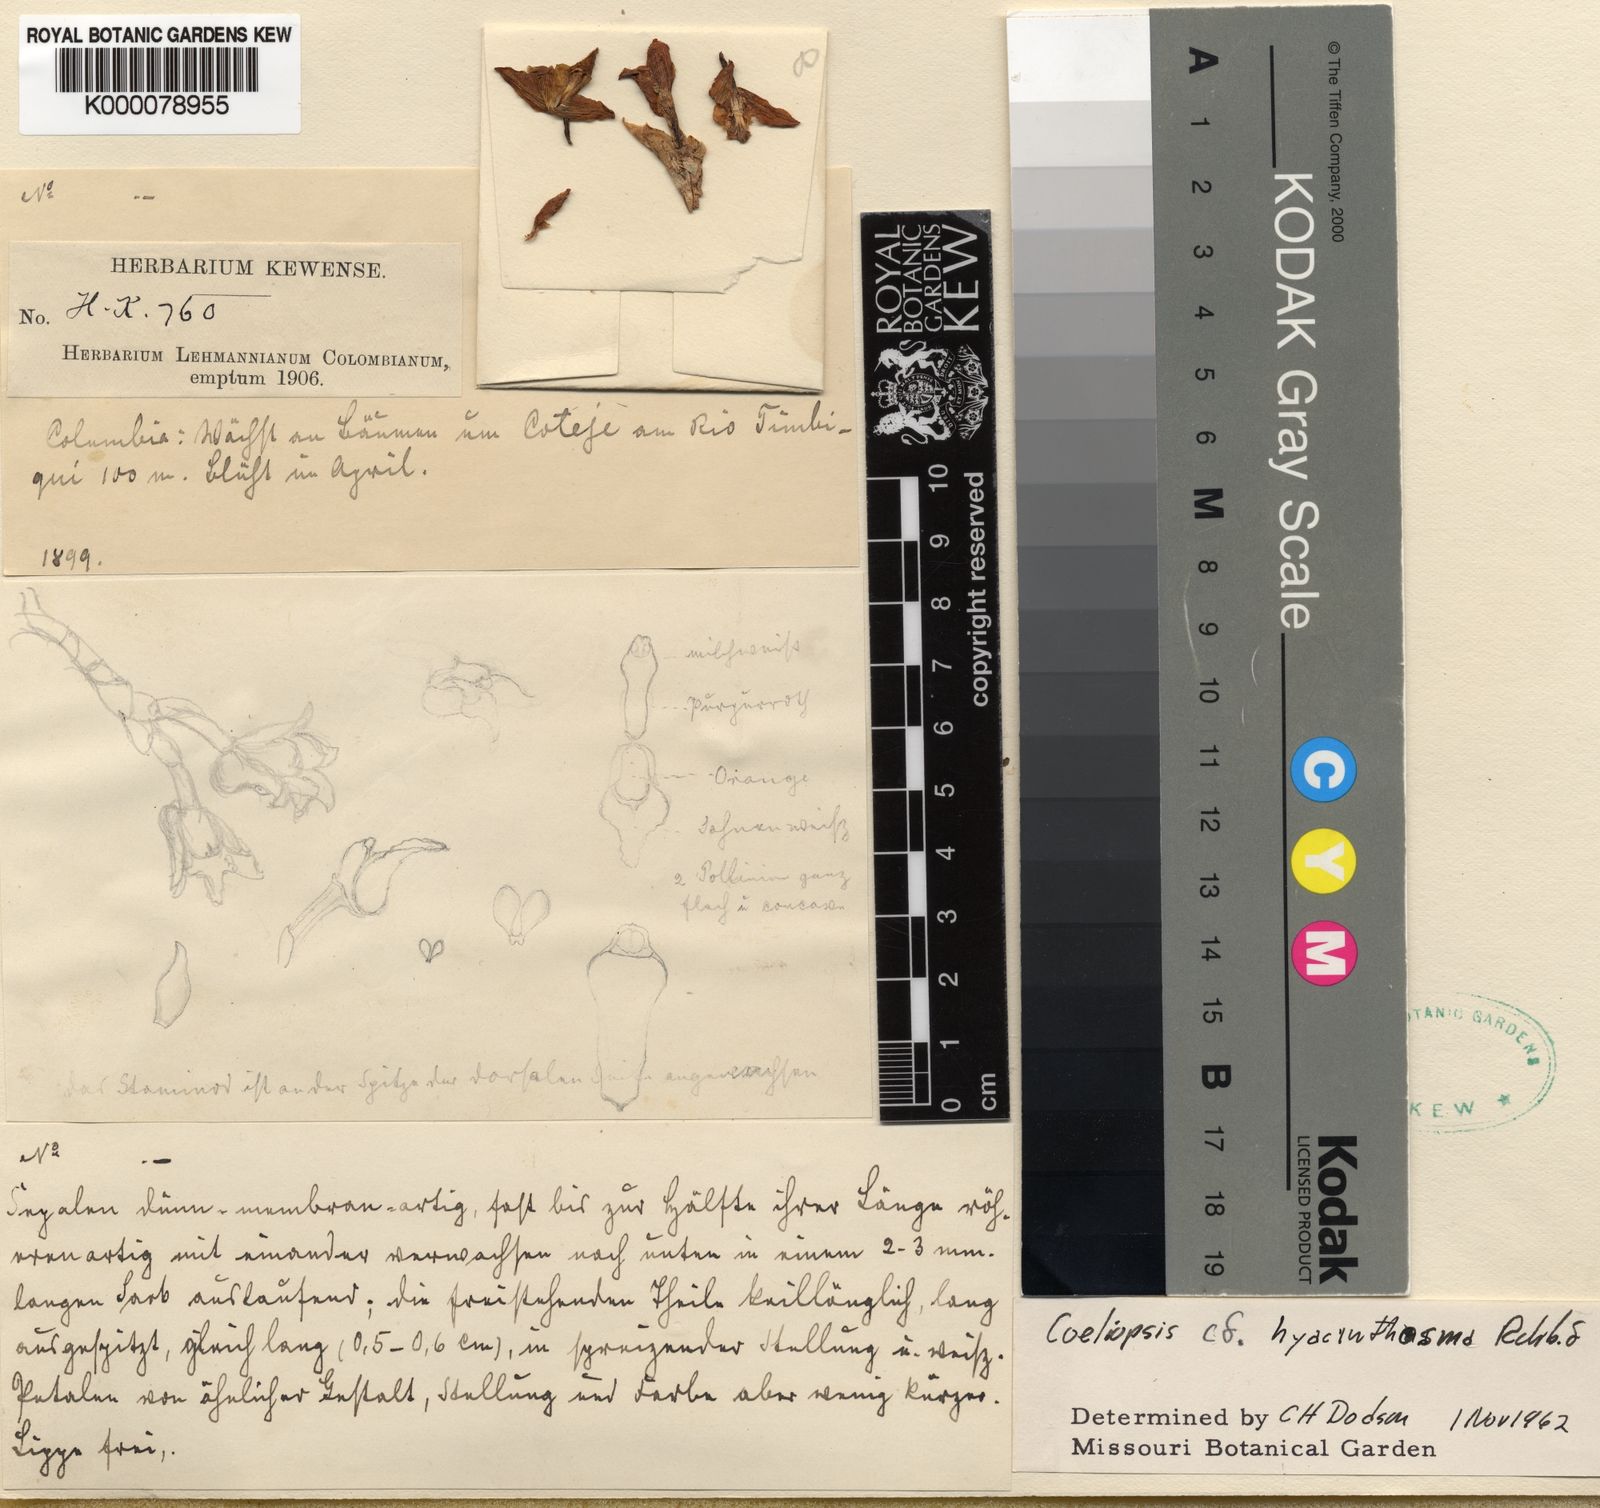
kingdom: Plantae
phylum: Tracheophyta
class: Liliopsida
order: Asparagales
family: Orchidaceae
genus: Coeliopsis
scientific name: Coeliopsis hyacinthosma
